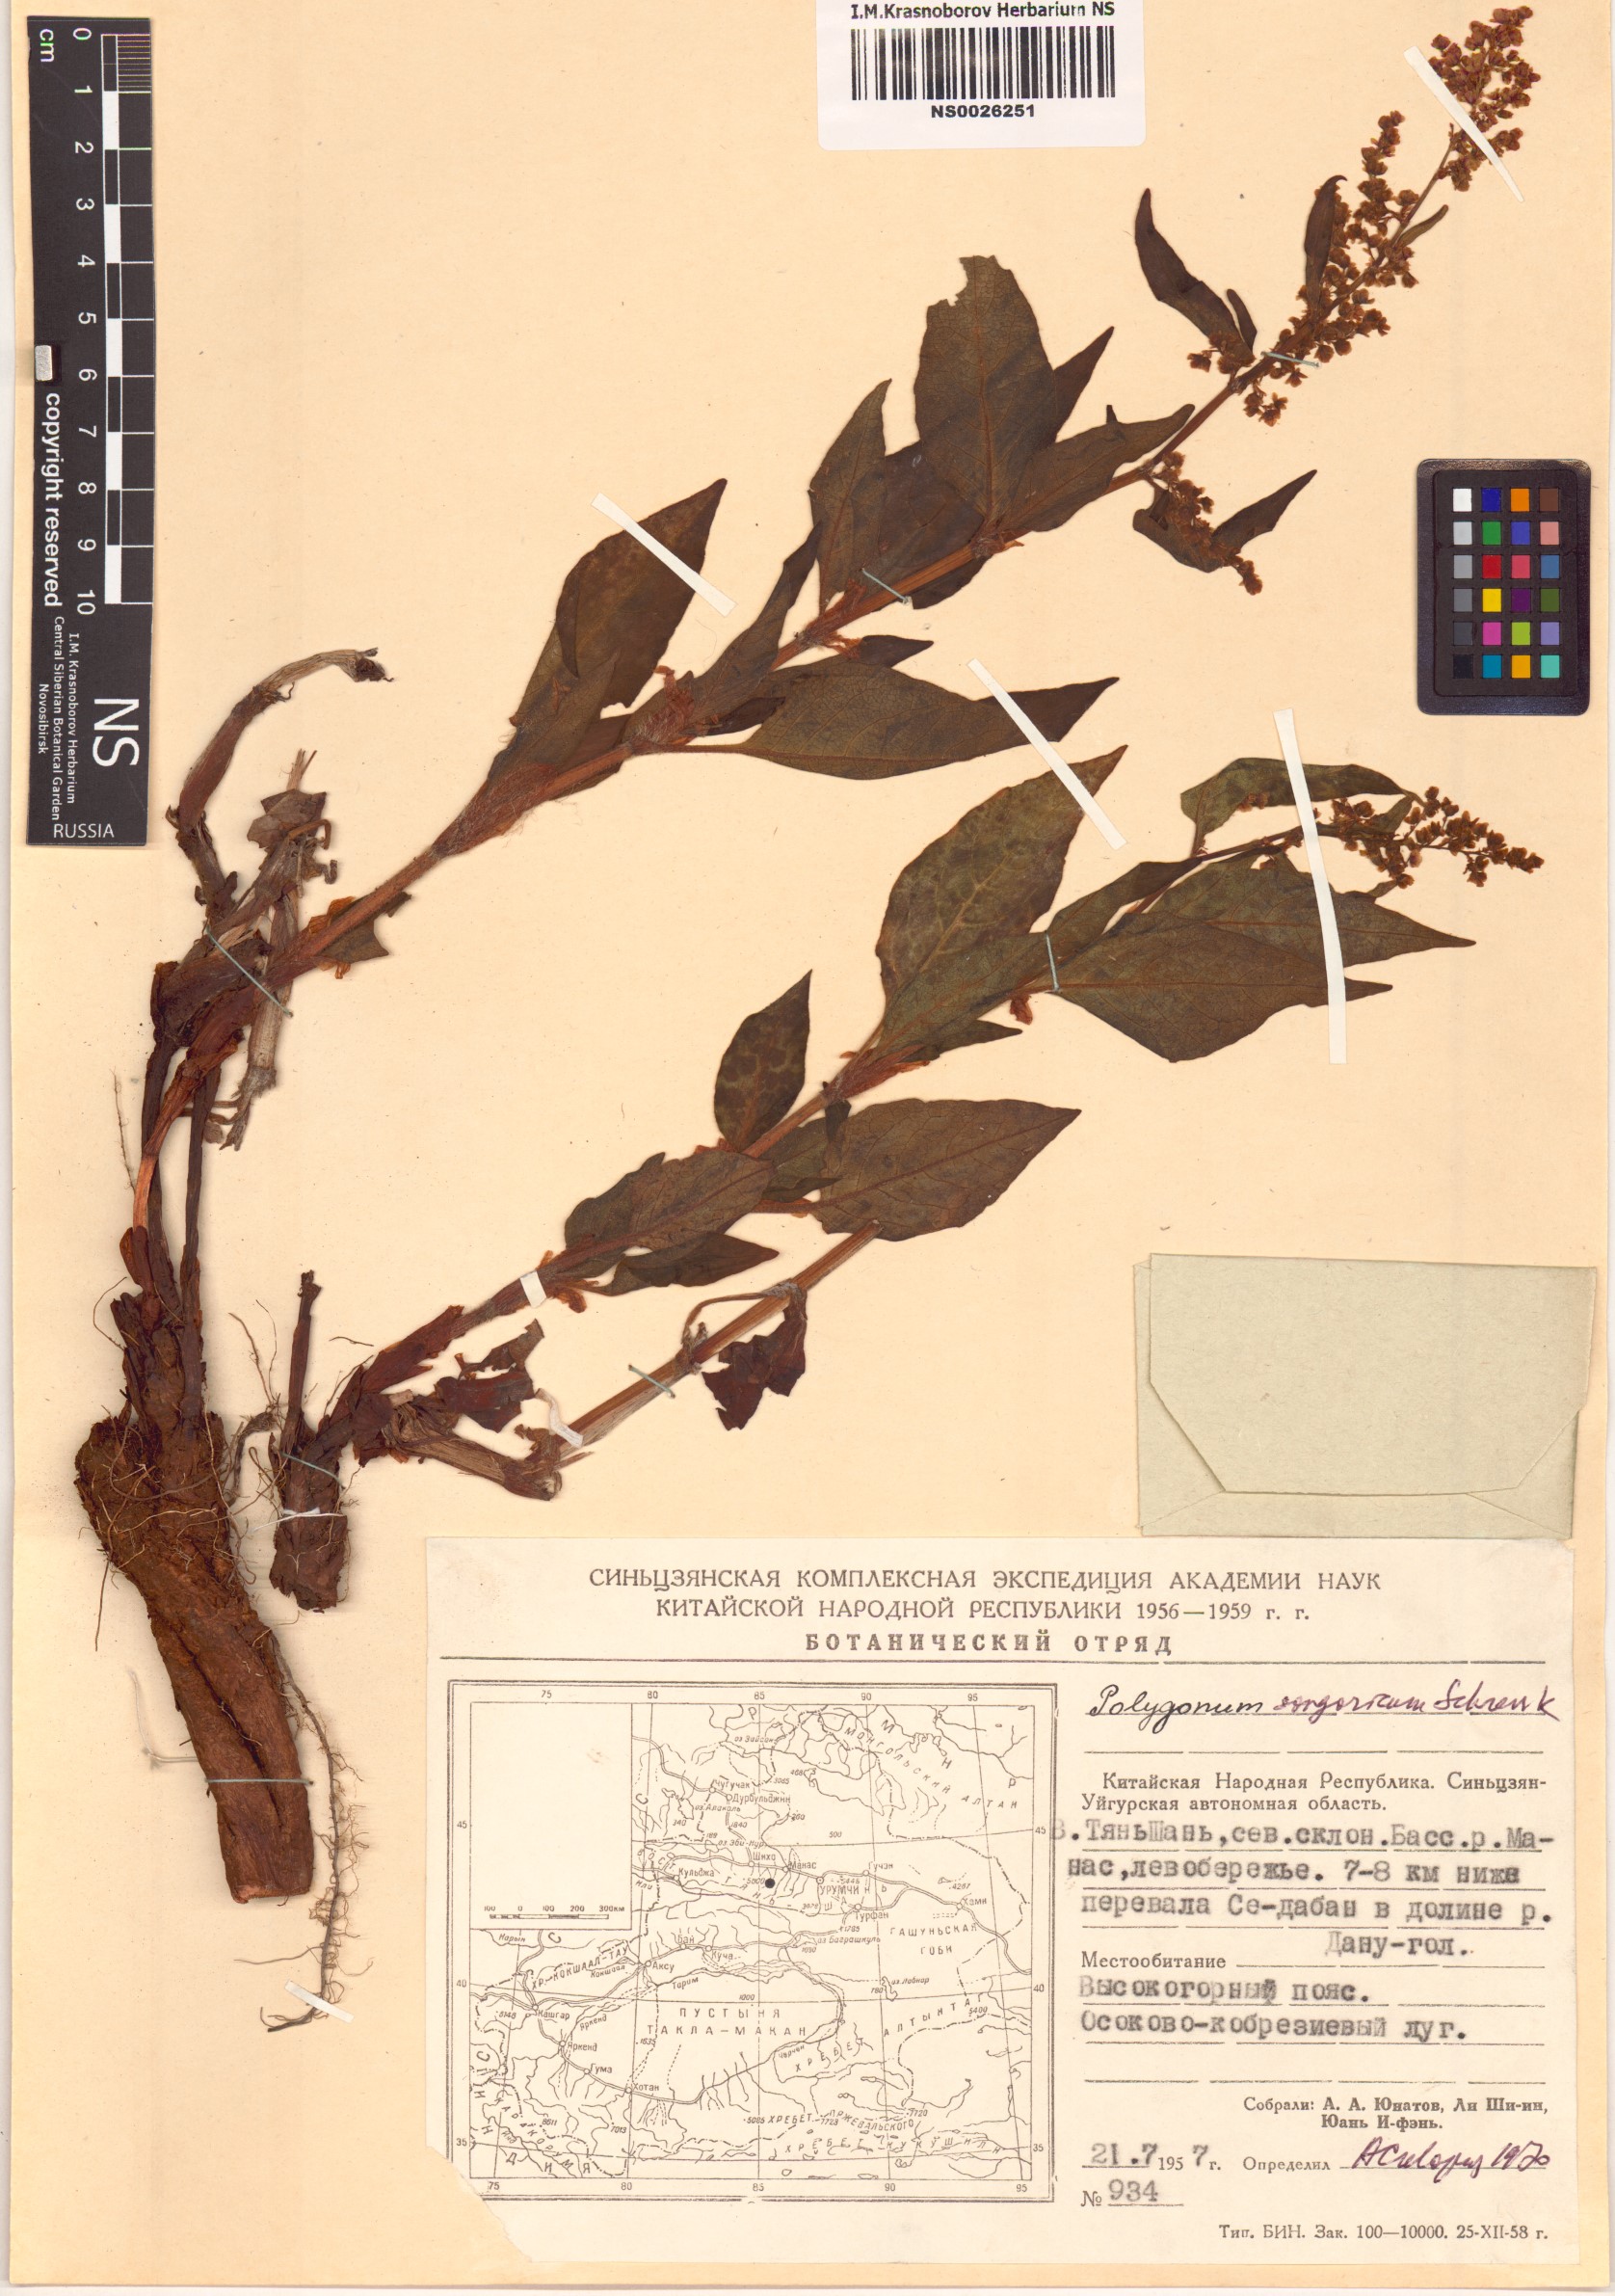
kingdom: Plantae
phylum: Tracheophyta
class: Magnoliopsida
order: Caryophyllales
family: Polygonaceae
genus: Polygonum
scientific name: Polygonum songaricum
